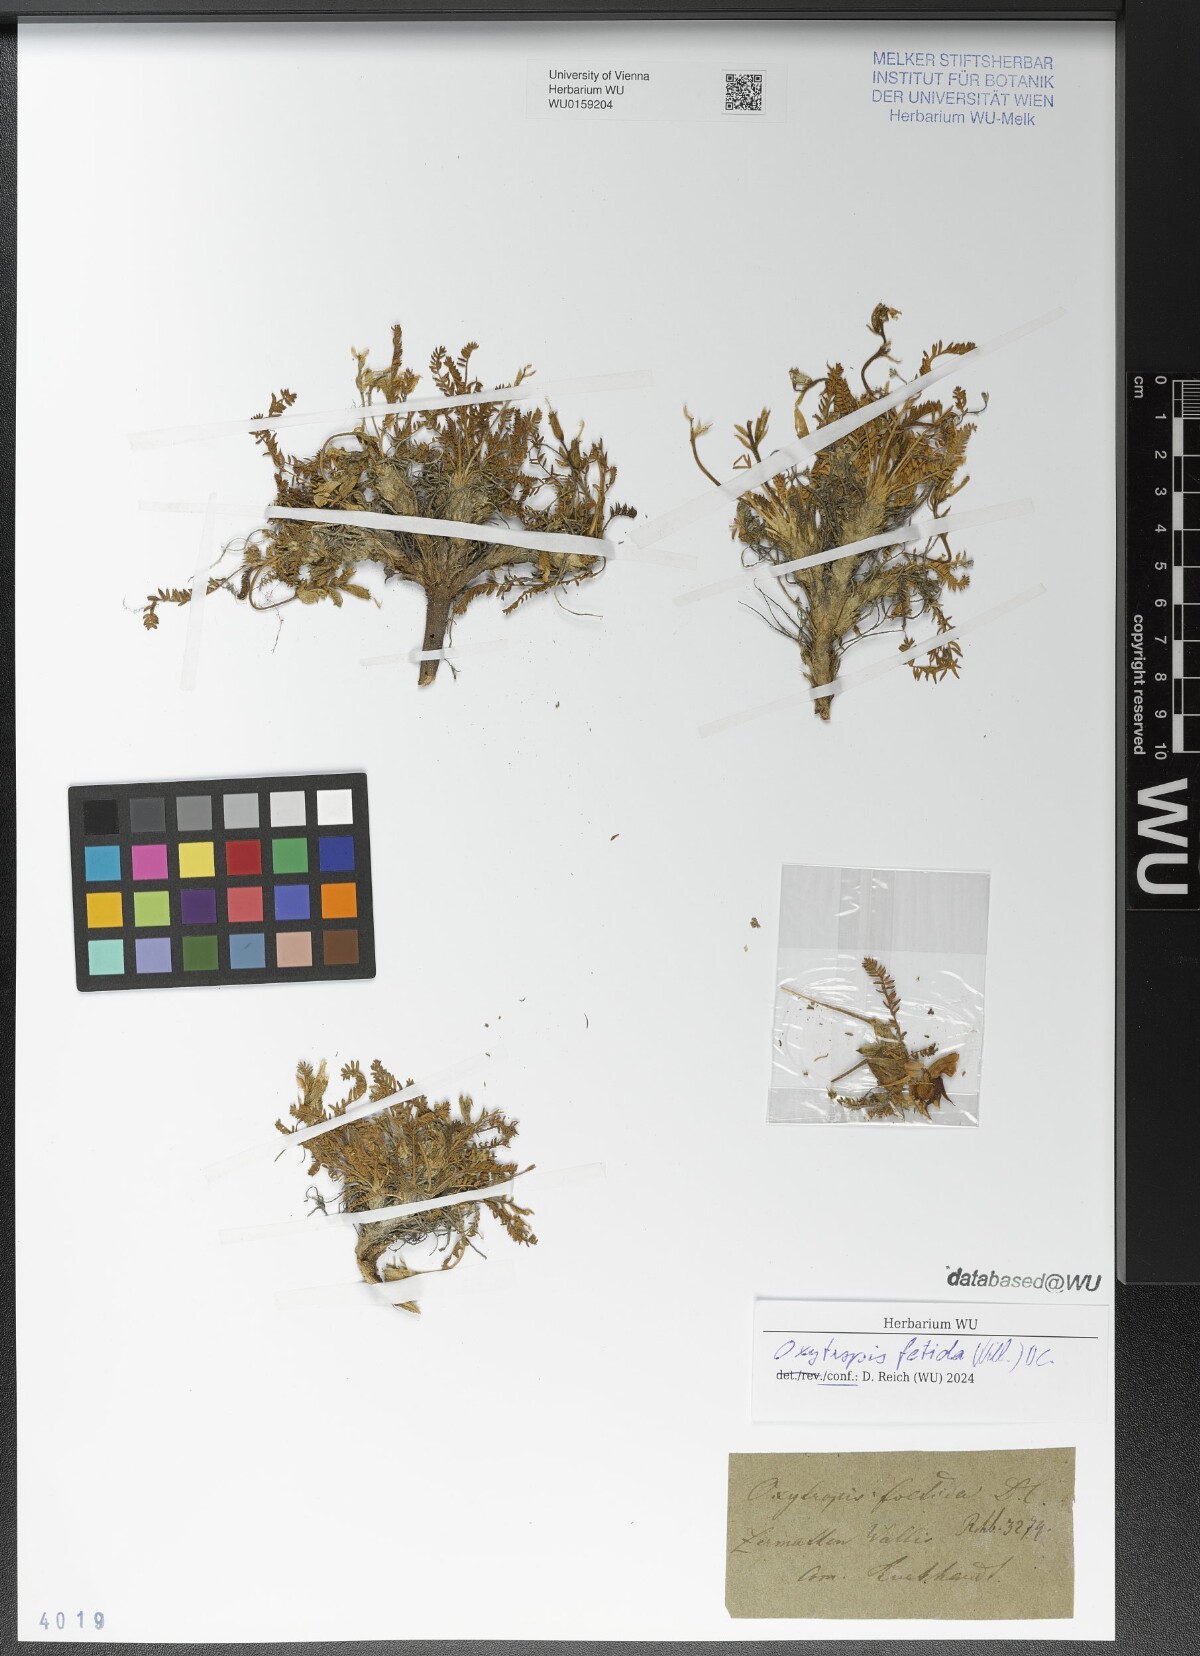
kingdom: Plantae
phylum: Tracheophyta
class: Magnoliopsida
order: Fabales
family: Fabaceae
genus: Oxytropis
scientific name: Oxytropis fetida
